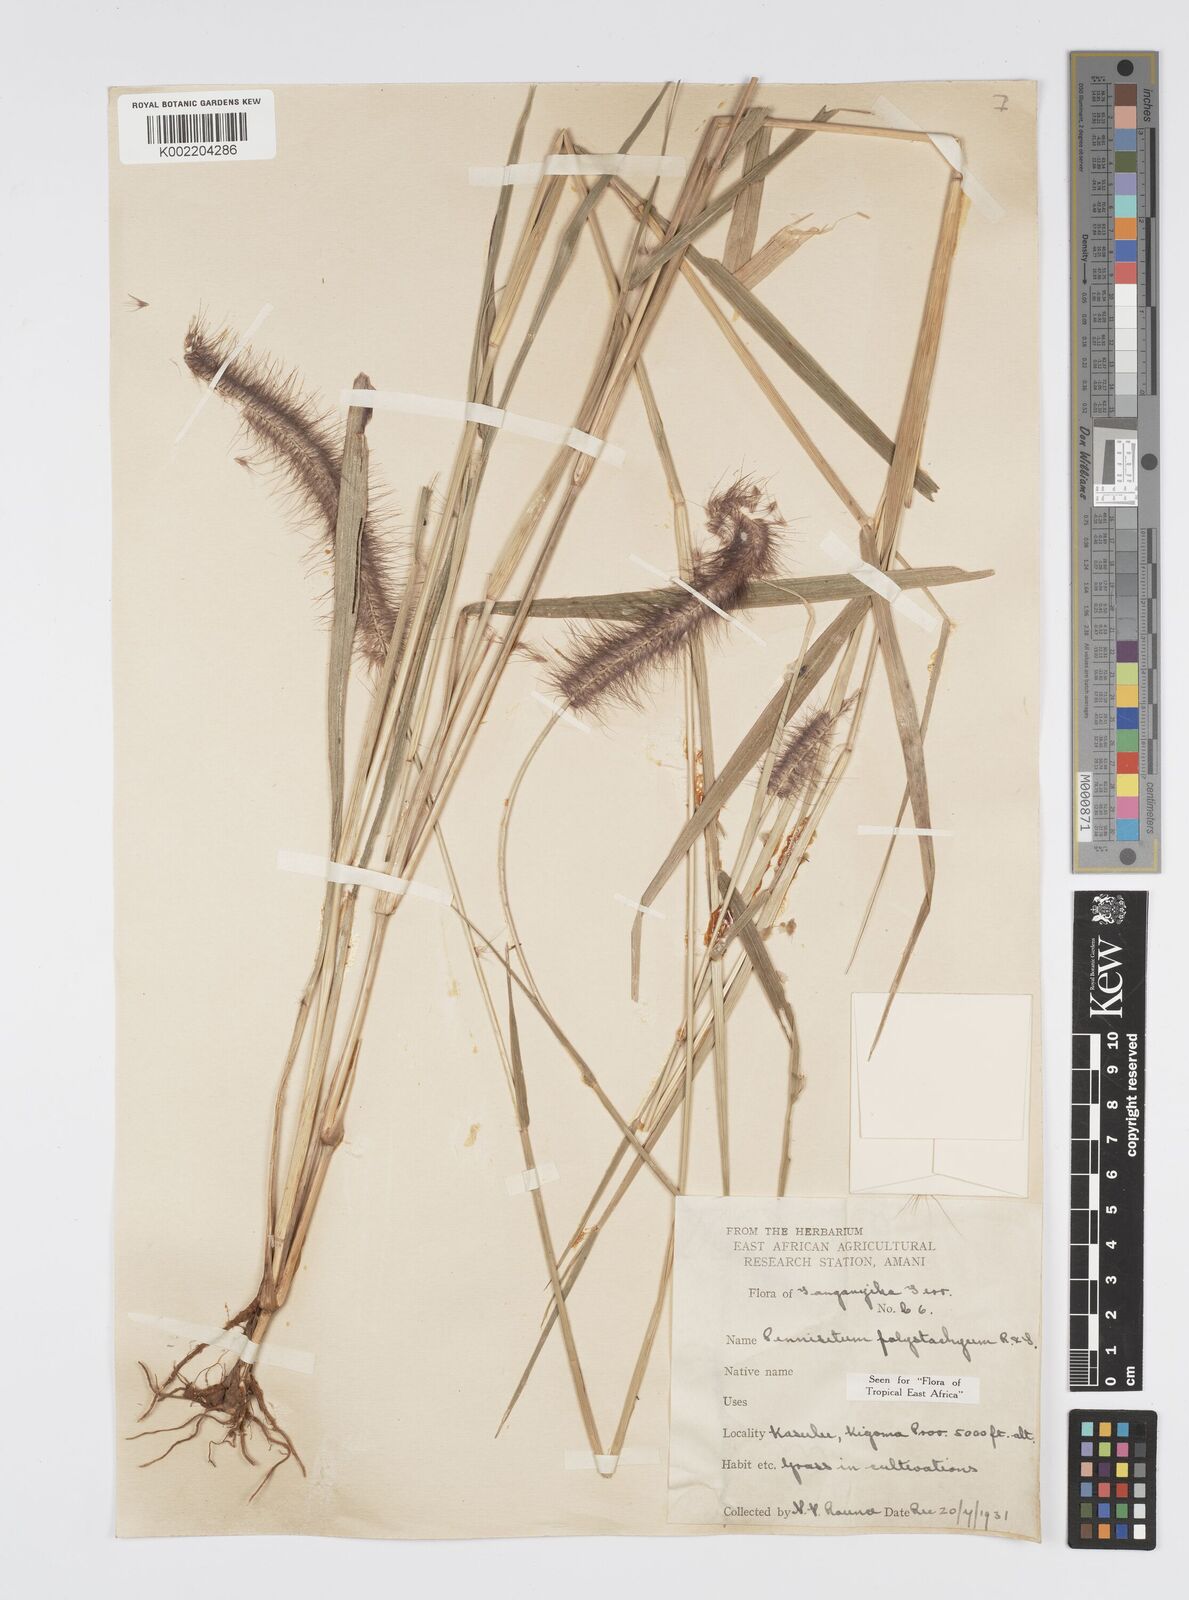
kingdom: Plantae
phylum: Tracheophyta
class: Liliopsida
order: Poales
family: Poaceae
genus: Setaria
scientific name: Setaria parviflora
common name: Knotroot bristle-grass
